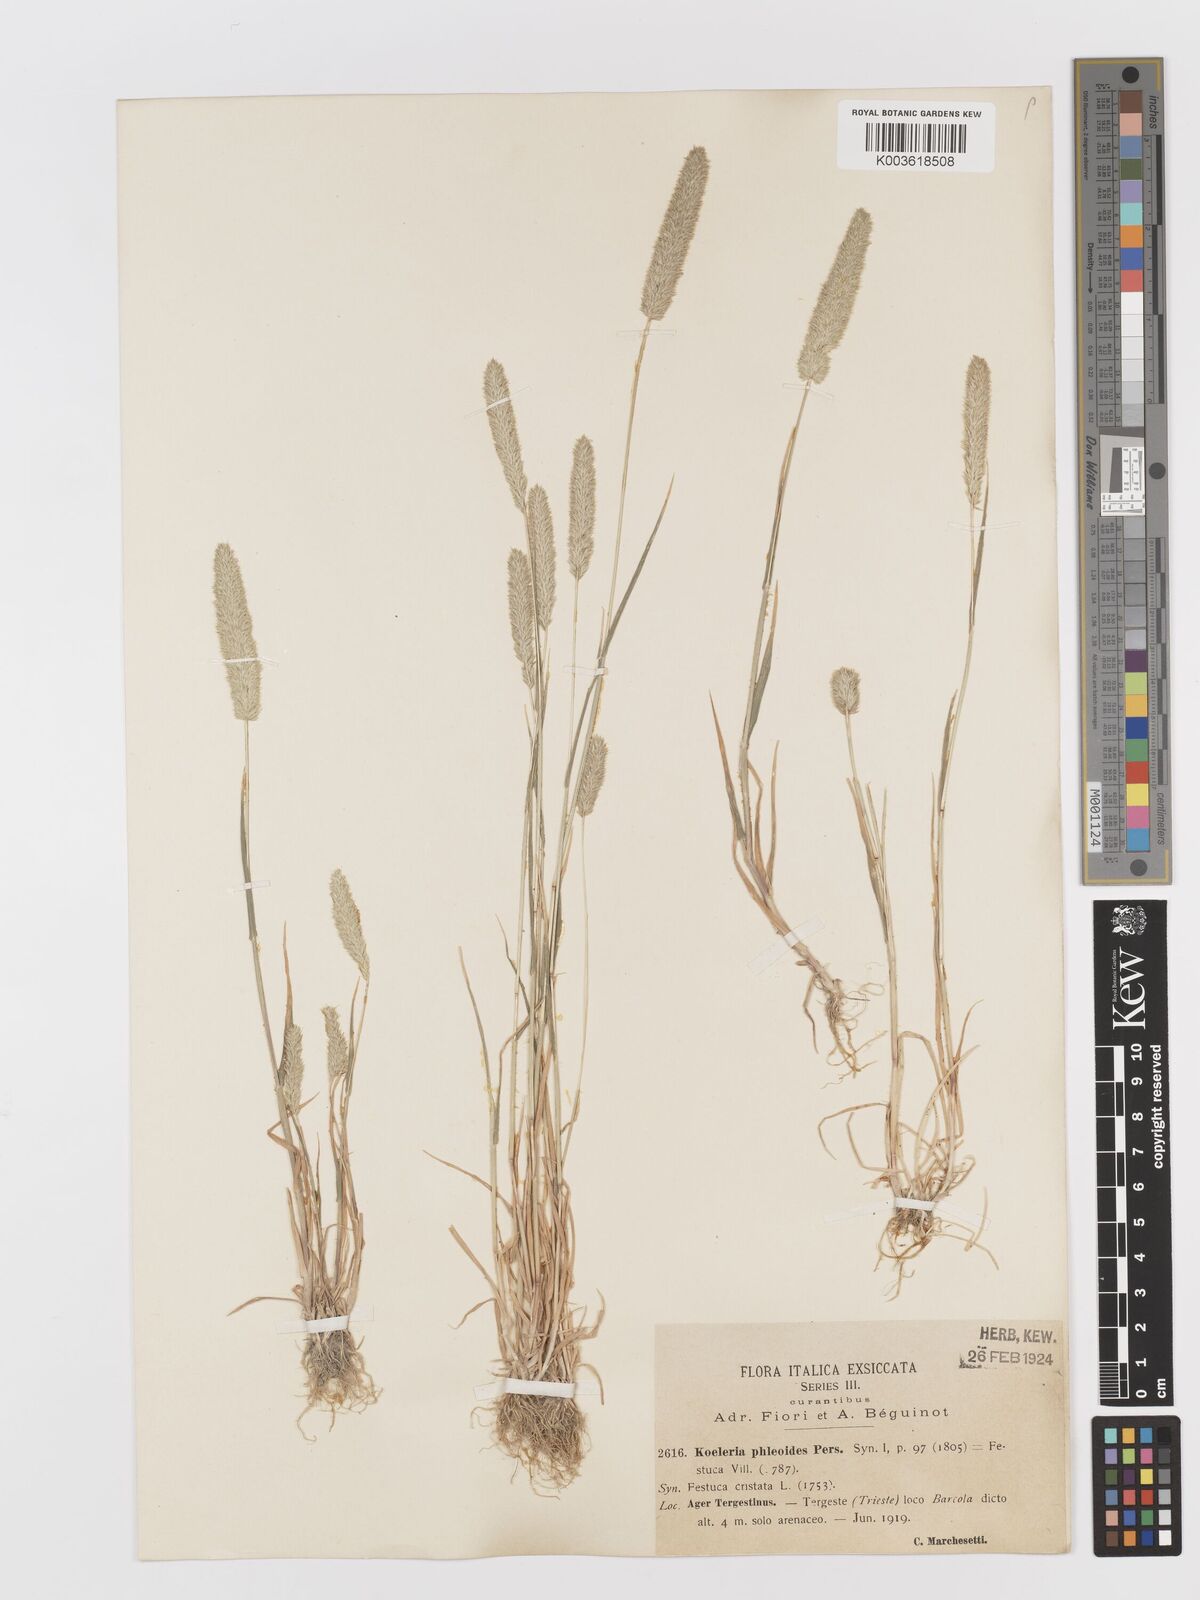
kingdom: Plantae
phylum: Tracheophyta
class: Liliopsida
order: Poales
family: Poaceae
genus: Rostraria
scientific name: Rostraria cristata
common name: Mediterranean hair-grass
